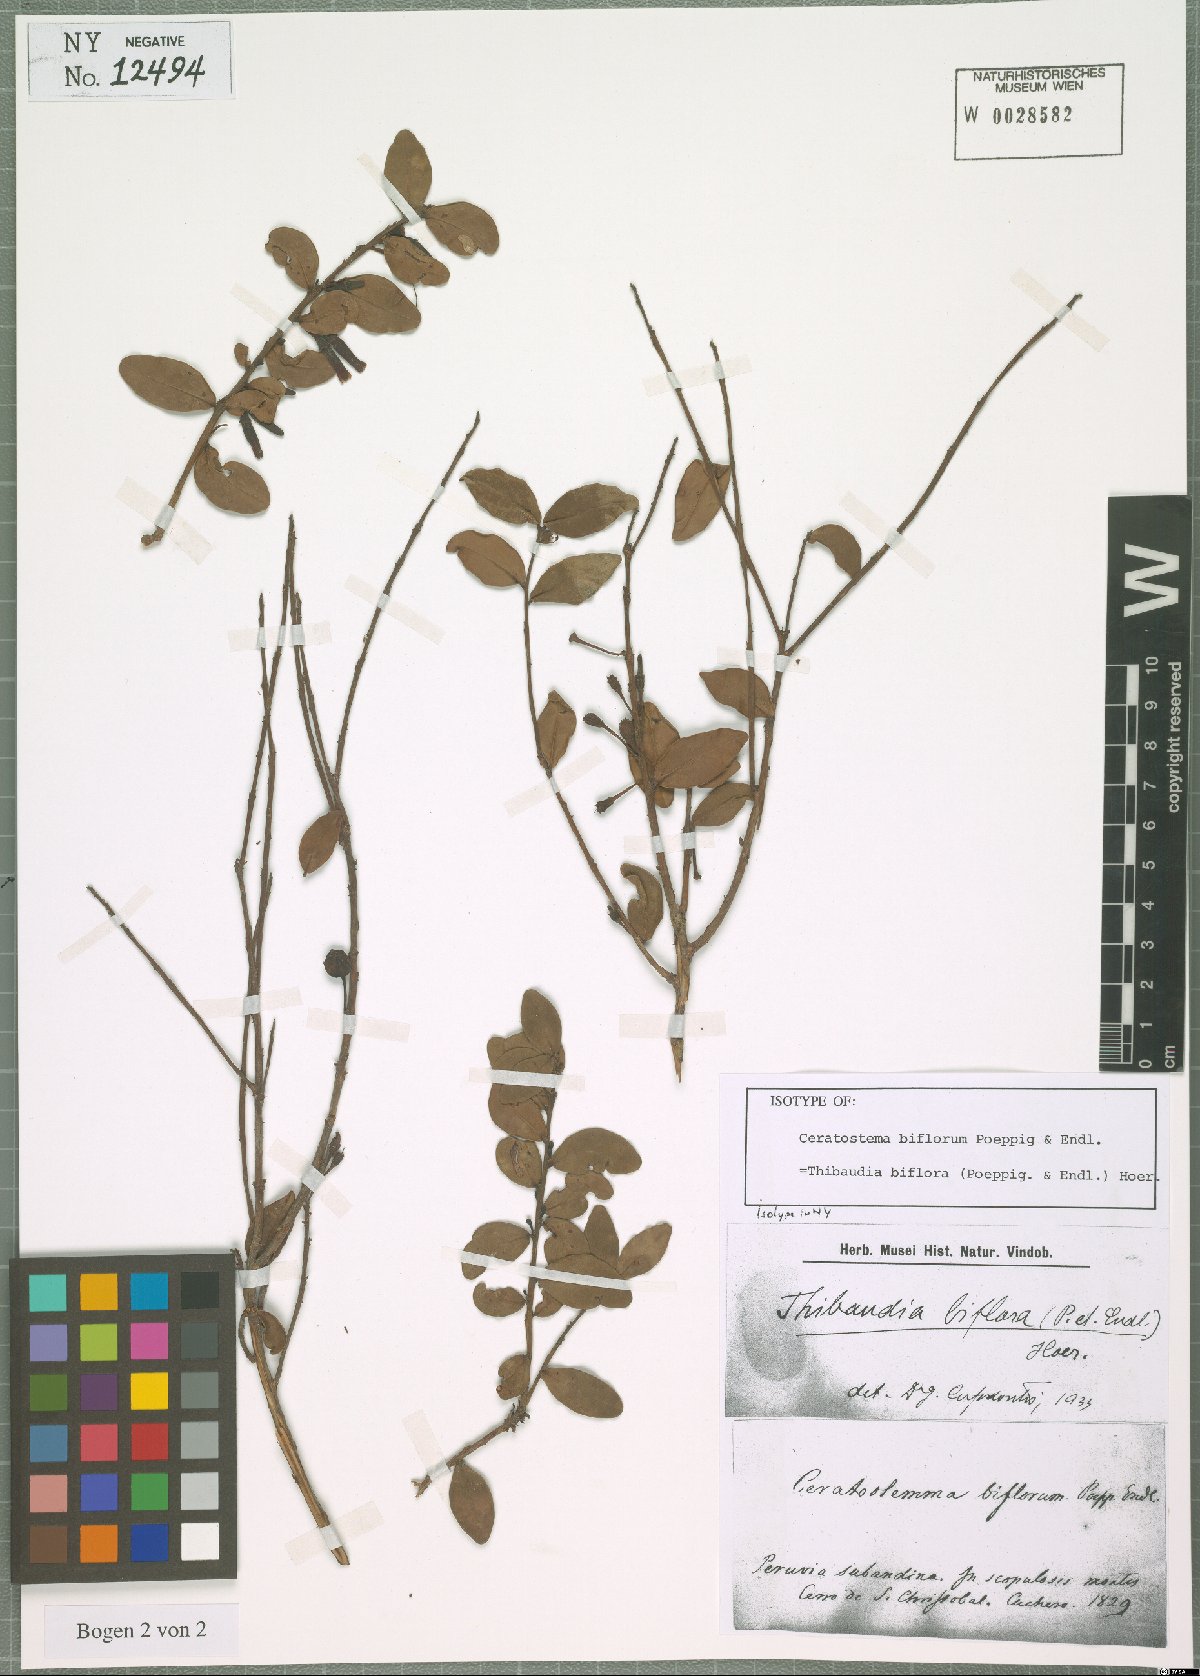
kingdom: Plantae
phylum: Tracheophyta
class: Magnoliopsida
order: Ericales
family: Ericaceae
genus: Thibaudia
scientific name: Thibaudia biflora
